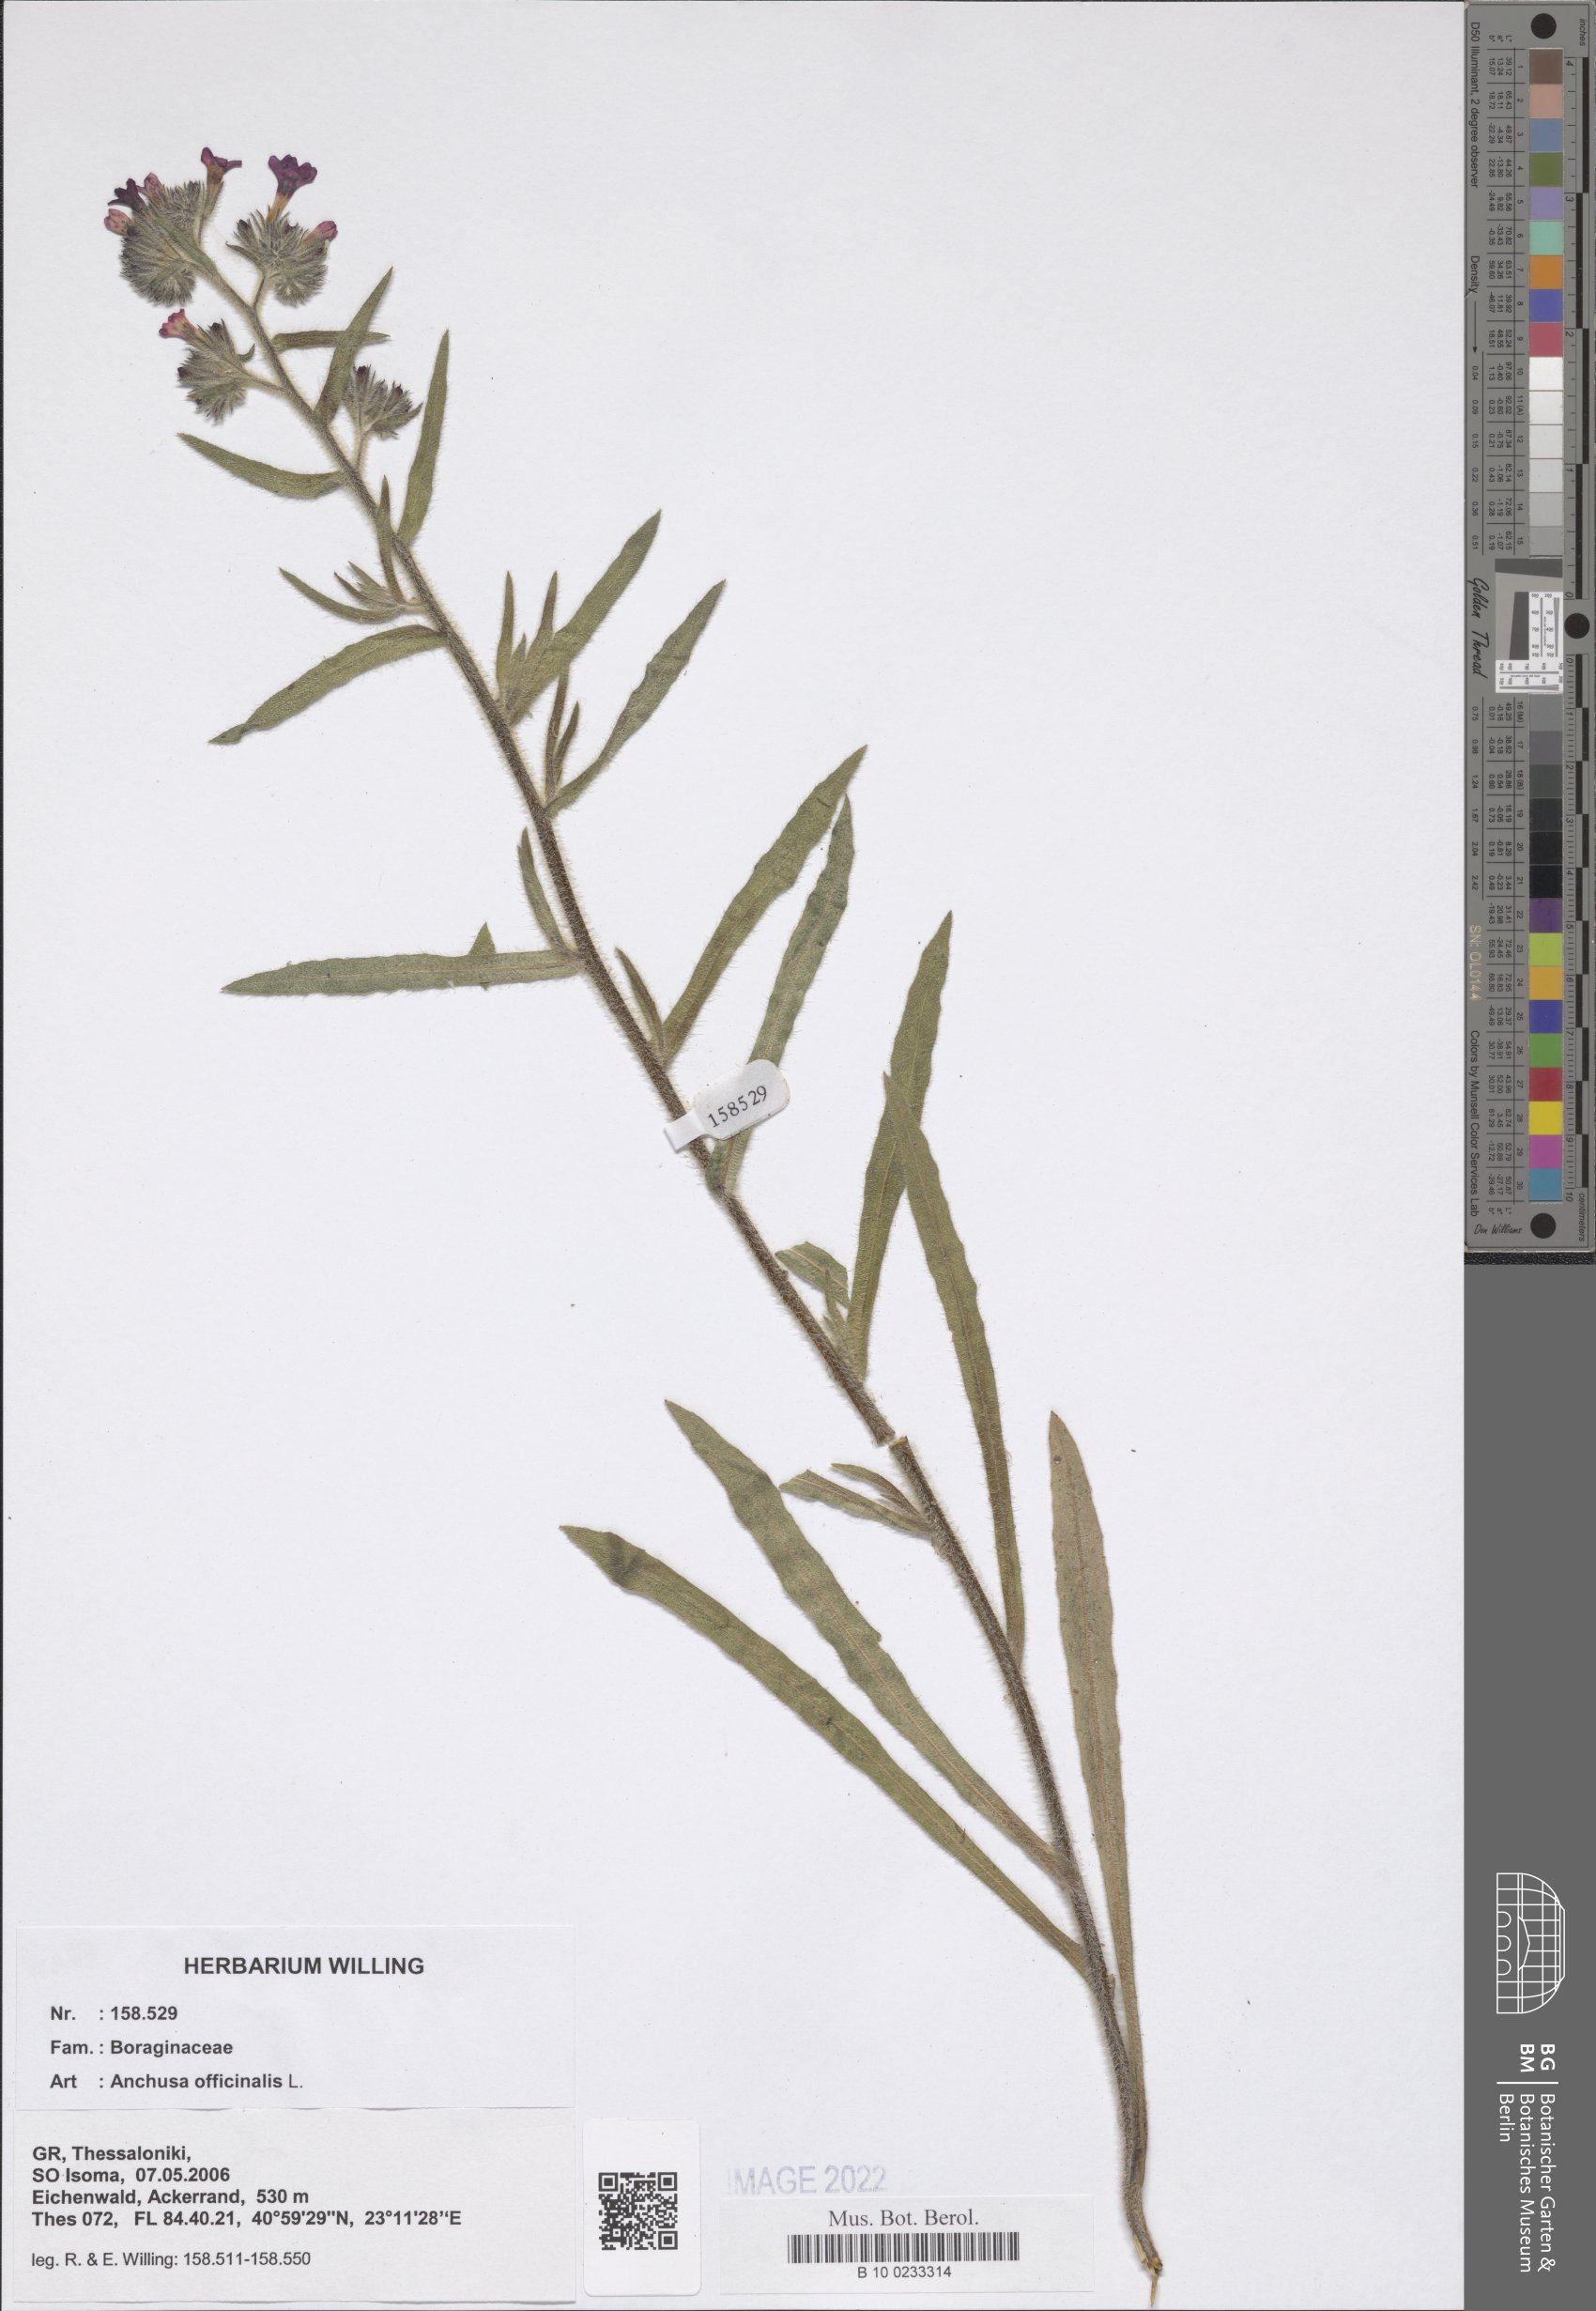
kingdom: Plantae
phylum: Tracheophyta
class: Magnoliopsida
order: Boraginales
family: Boraginaceae
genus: Anchusa
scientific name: Anchusa officinalis
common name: Alkanet
